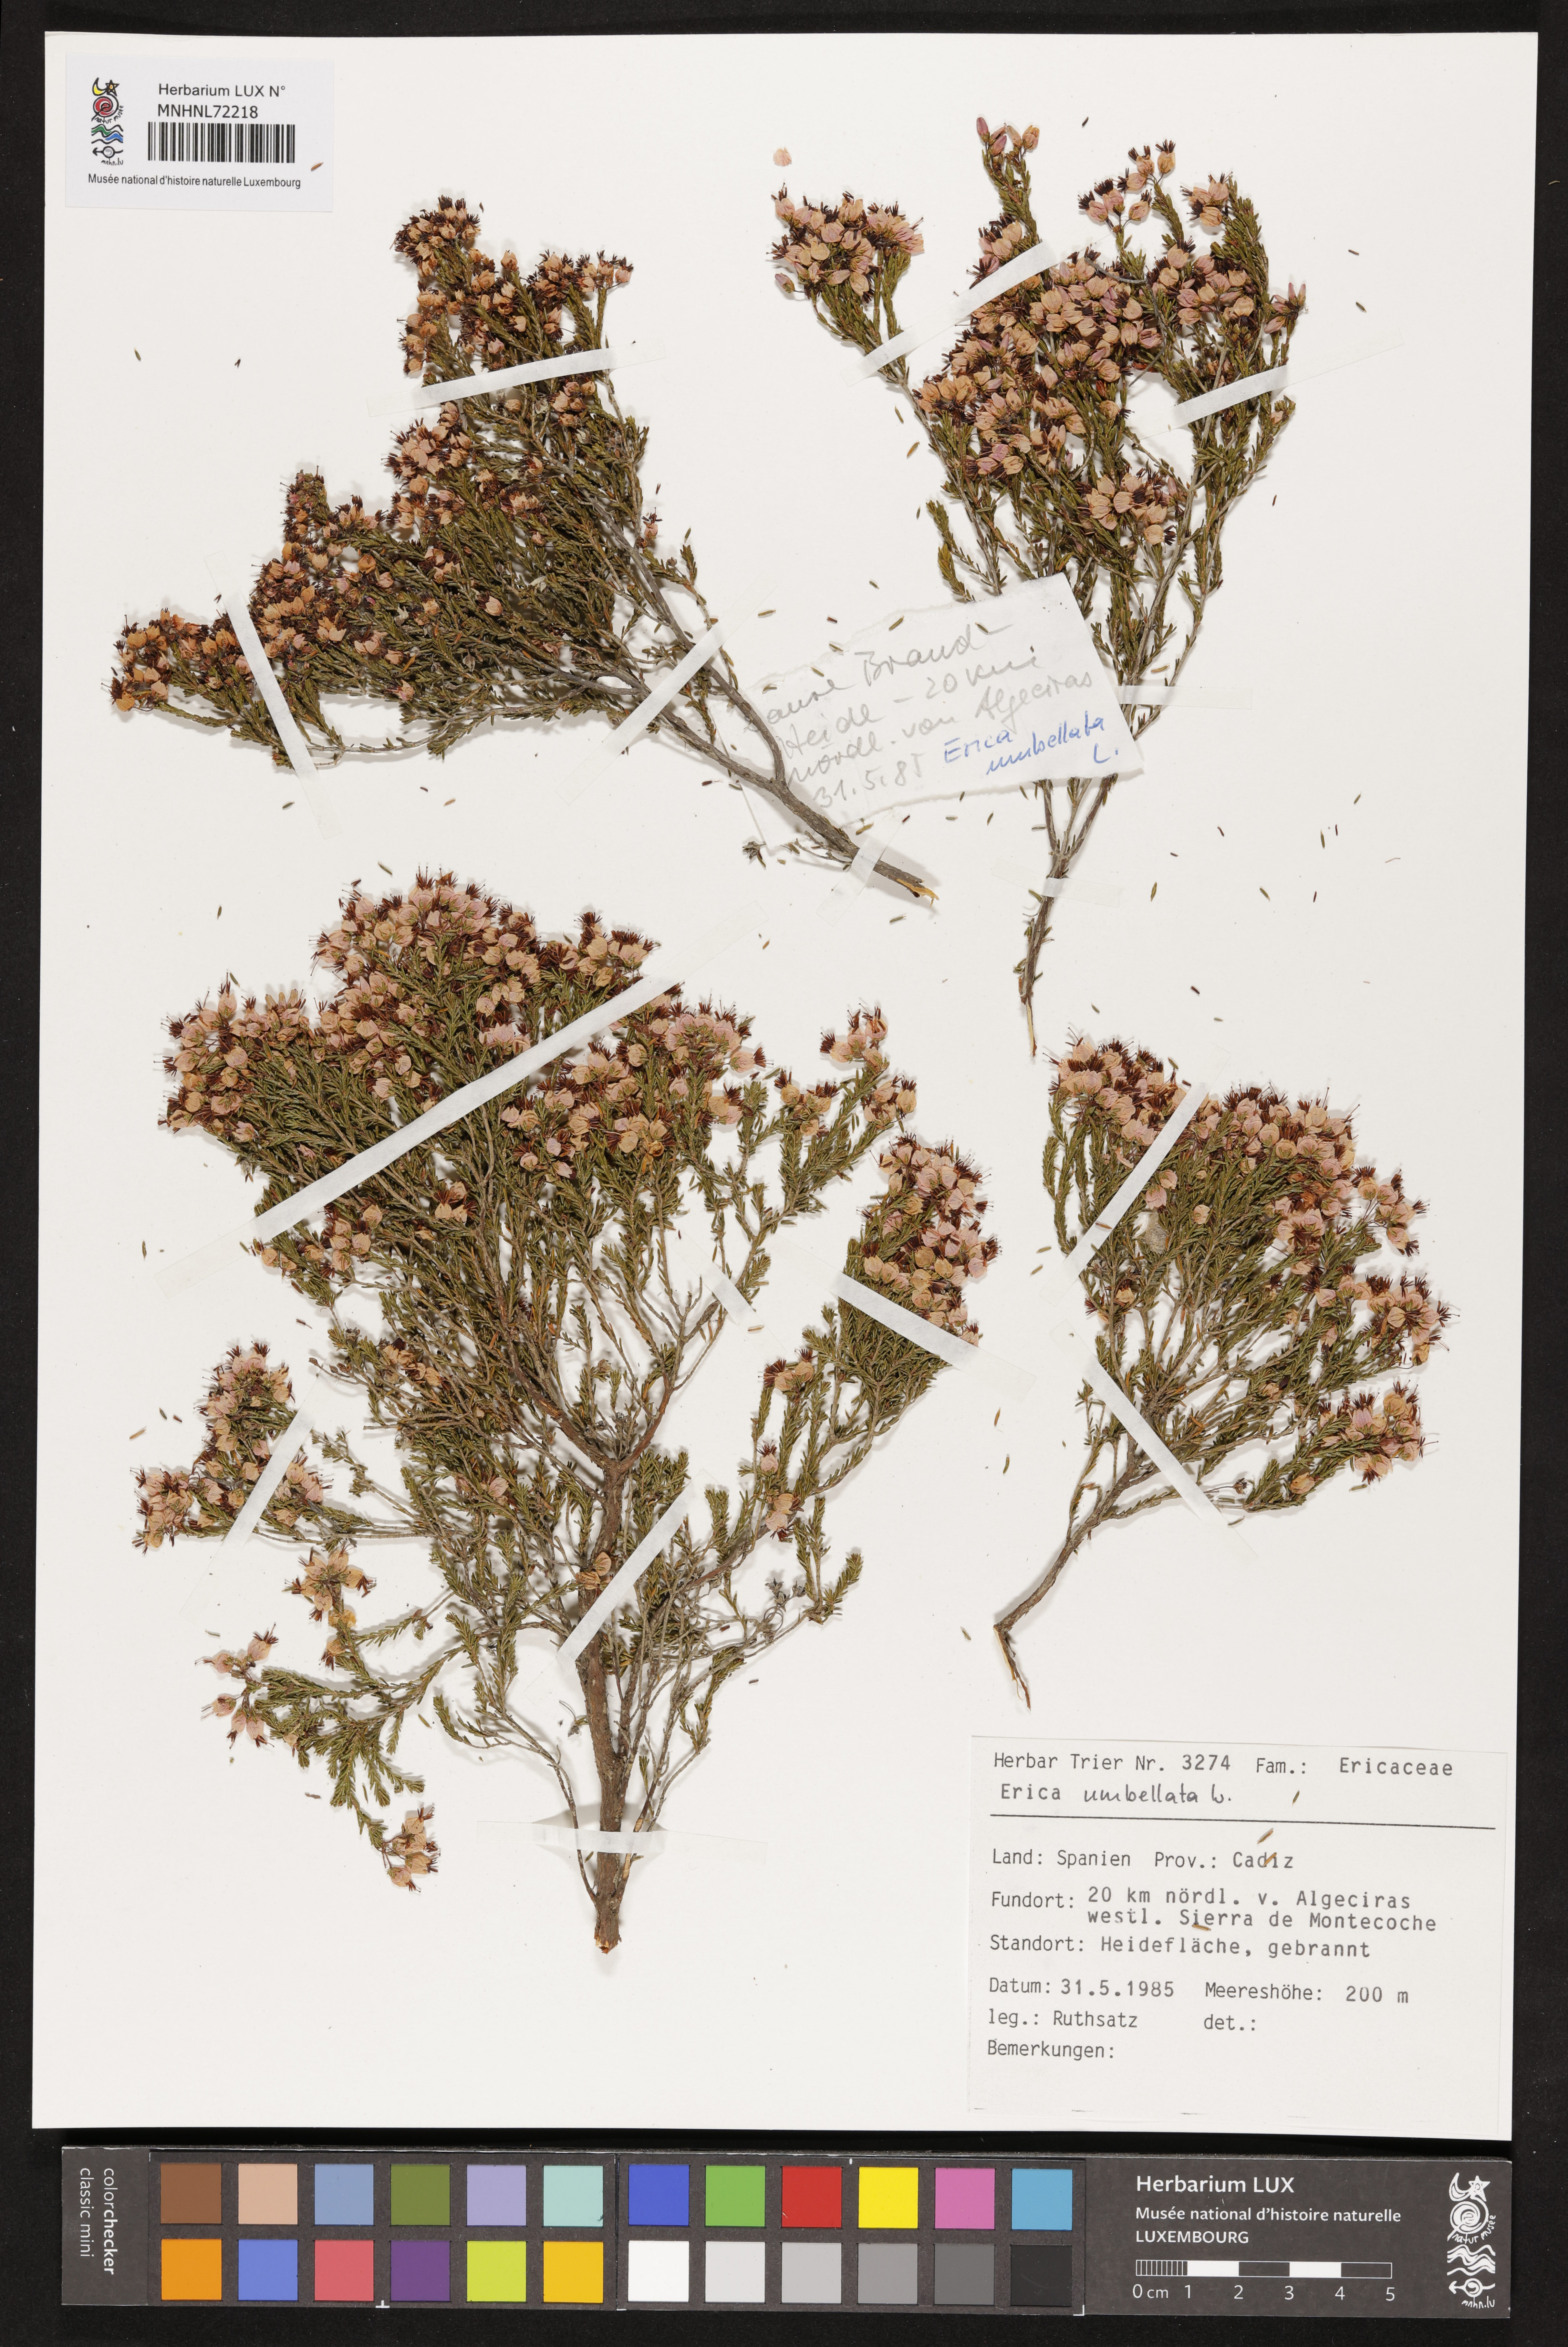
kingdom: Plantae
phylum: Tracheophyta
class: Magnoliopsida
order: Ericales
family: Ericaceae
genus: Erica
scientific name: Erica umbellata
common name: Dwarf spanish heath
